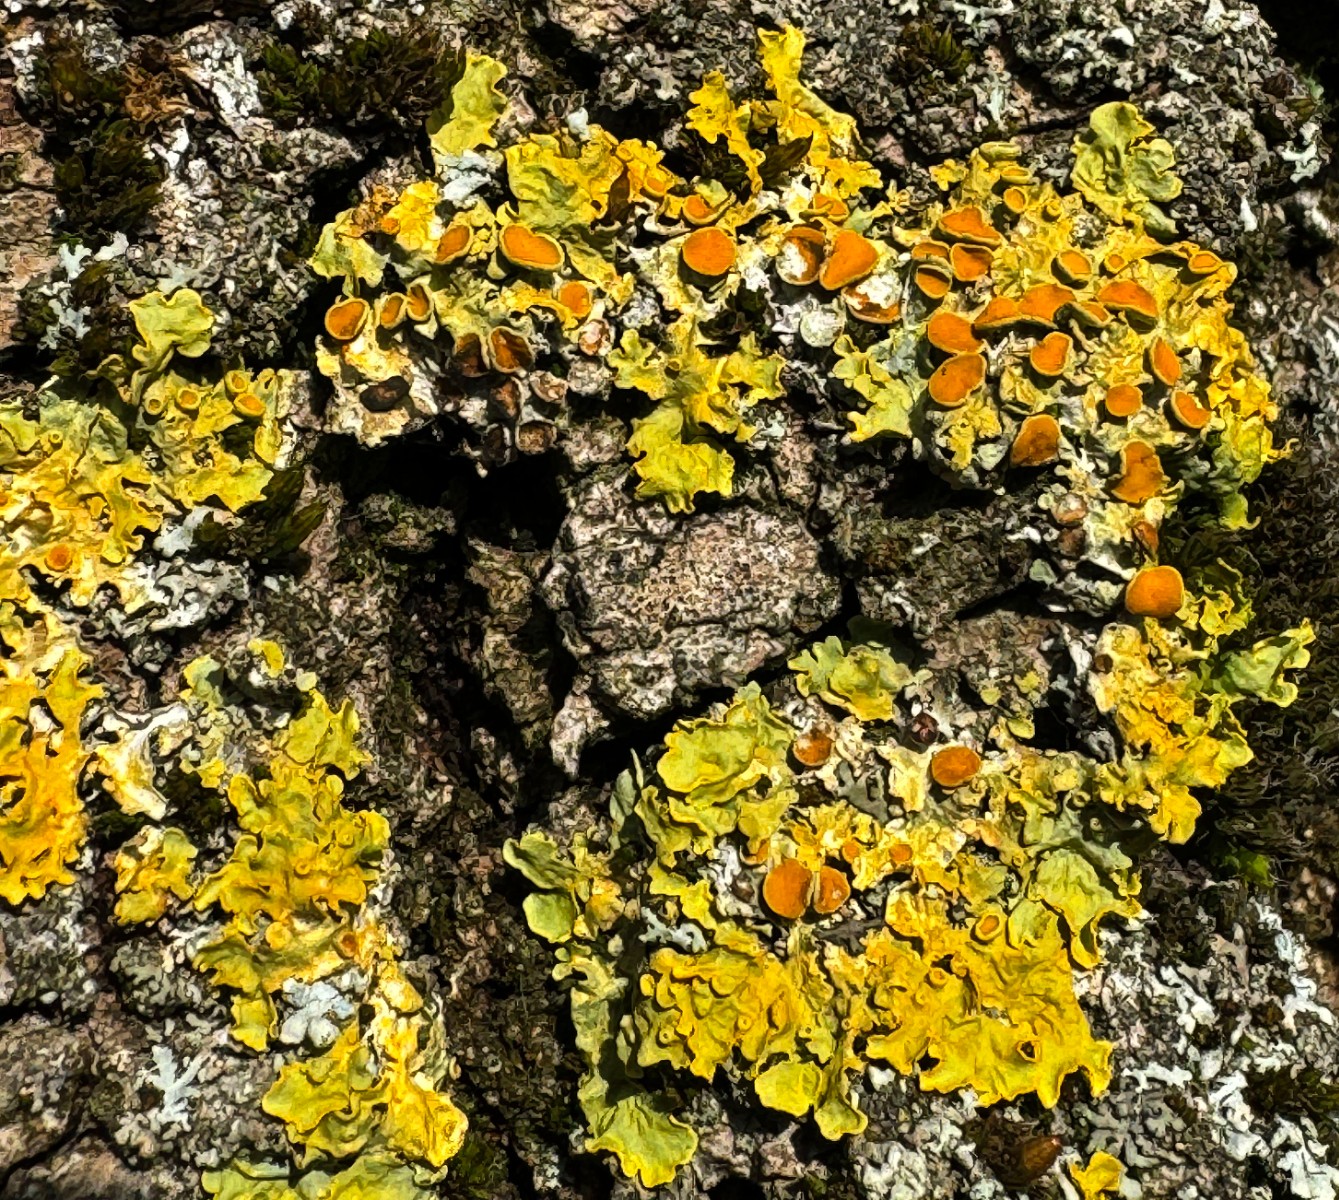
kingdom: Fungi
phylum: Ascomycota
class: Lecanoromycetes
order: Teloschistales
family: Teloschistaceae
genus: Xanthoria
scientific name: Xanthoria parietina
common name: almindelig væggelav
